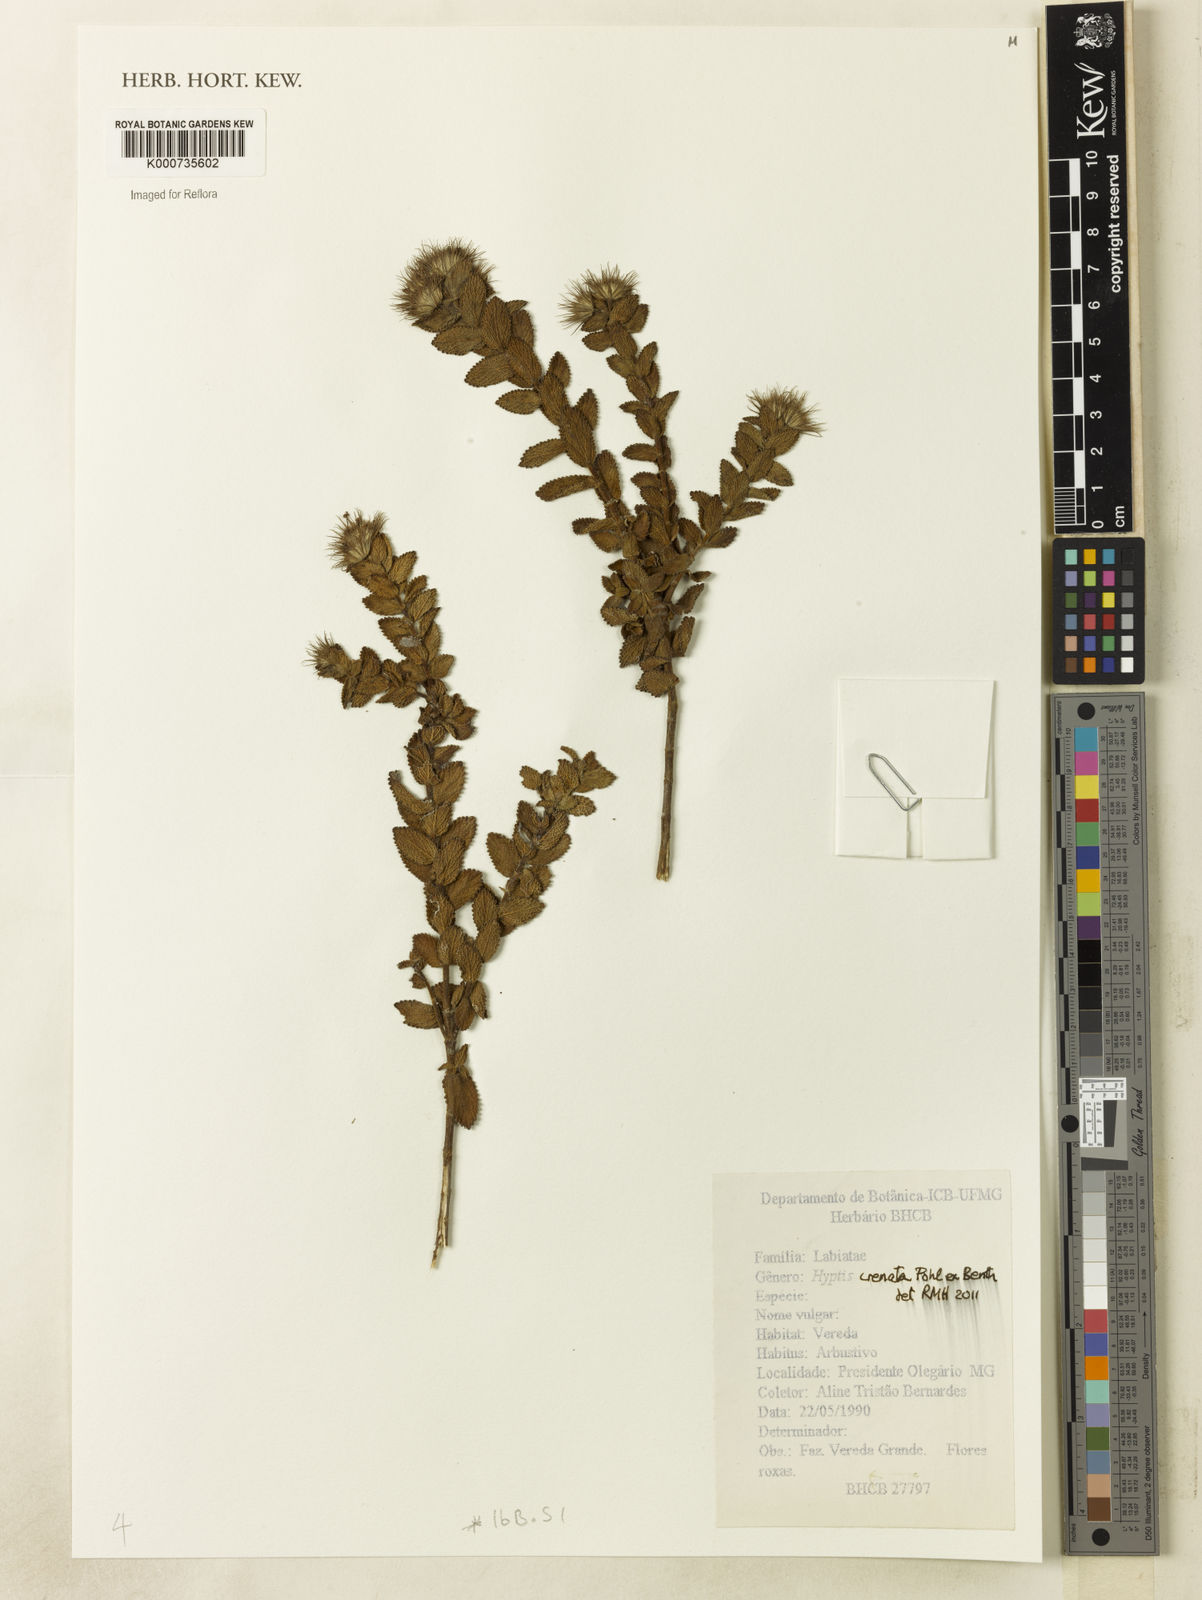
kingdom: Plantae
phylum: Tracheophyta
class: Magnoliopsida
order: Lamiales
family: Lamiaceae
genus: Hyptis
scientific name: Hyptis crenata
